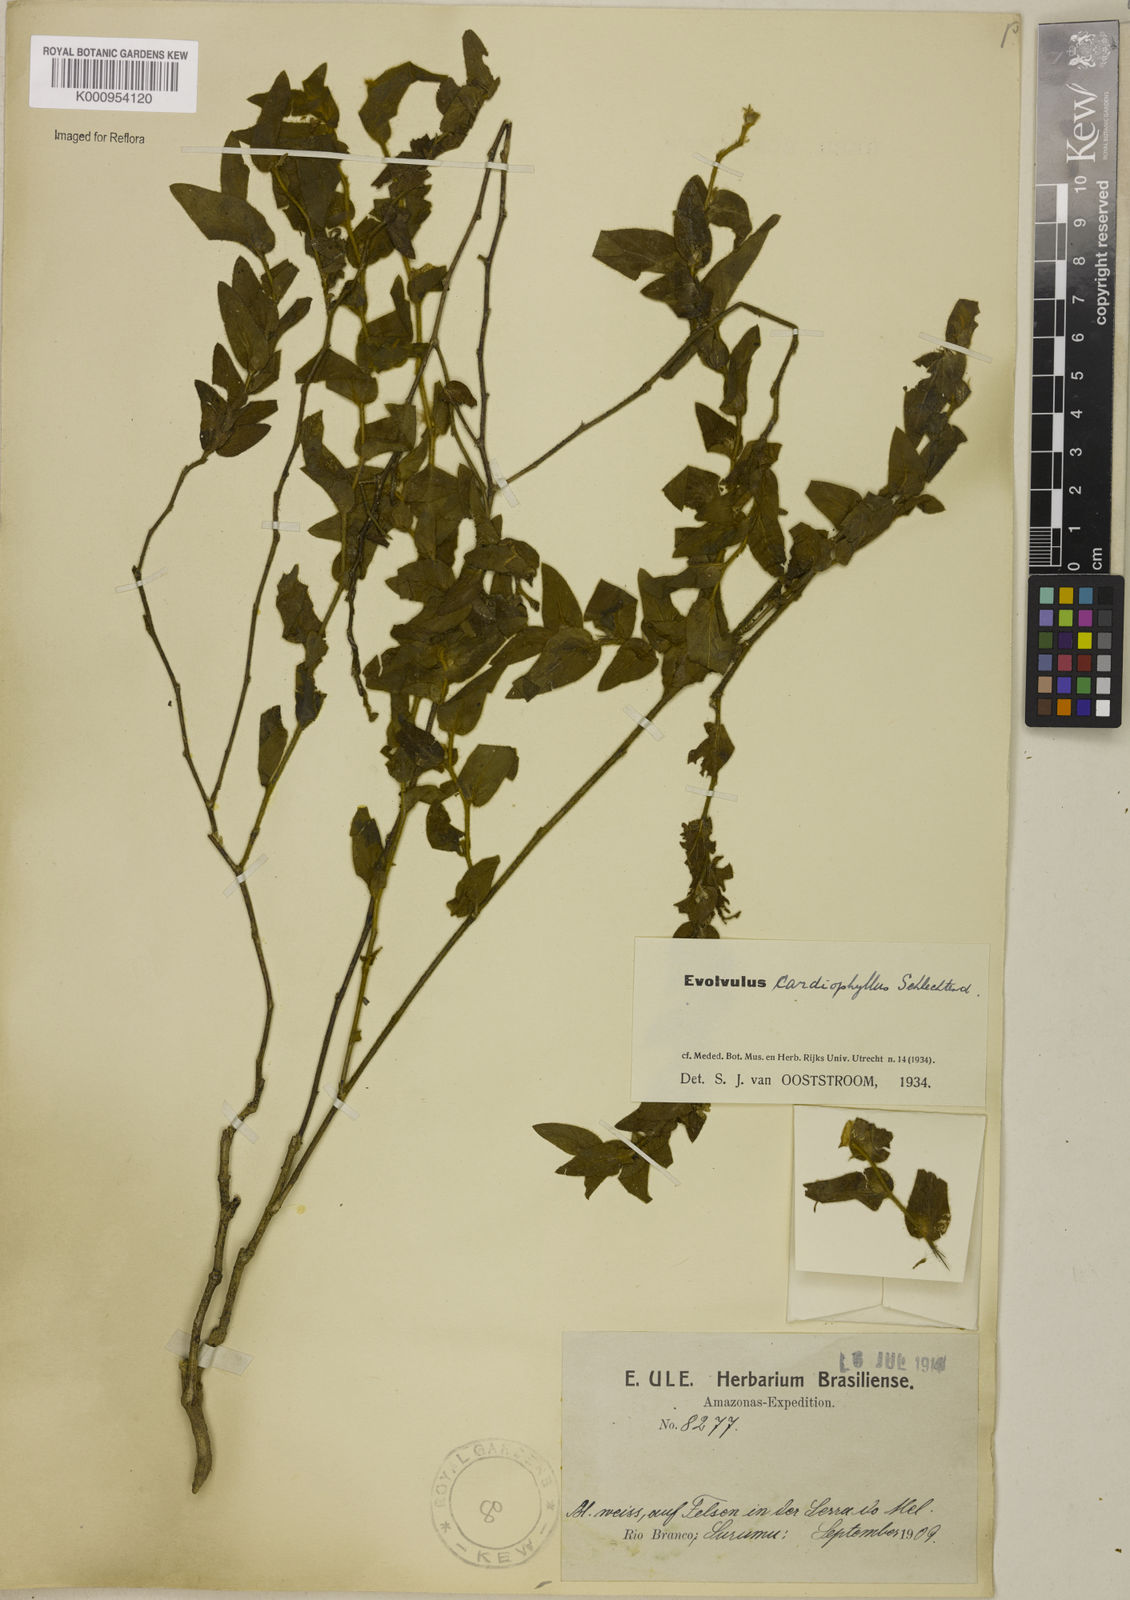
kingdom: Plantae
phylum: Tracheophyta
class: Magnoliopsida
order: Solanales
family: Convolvulaceae
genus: Evolvulus
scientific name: Evolvulus cardiophyllus
